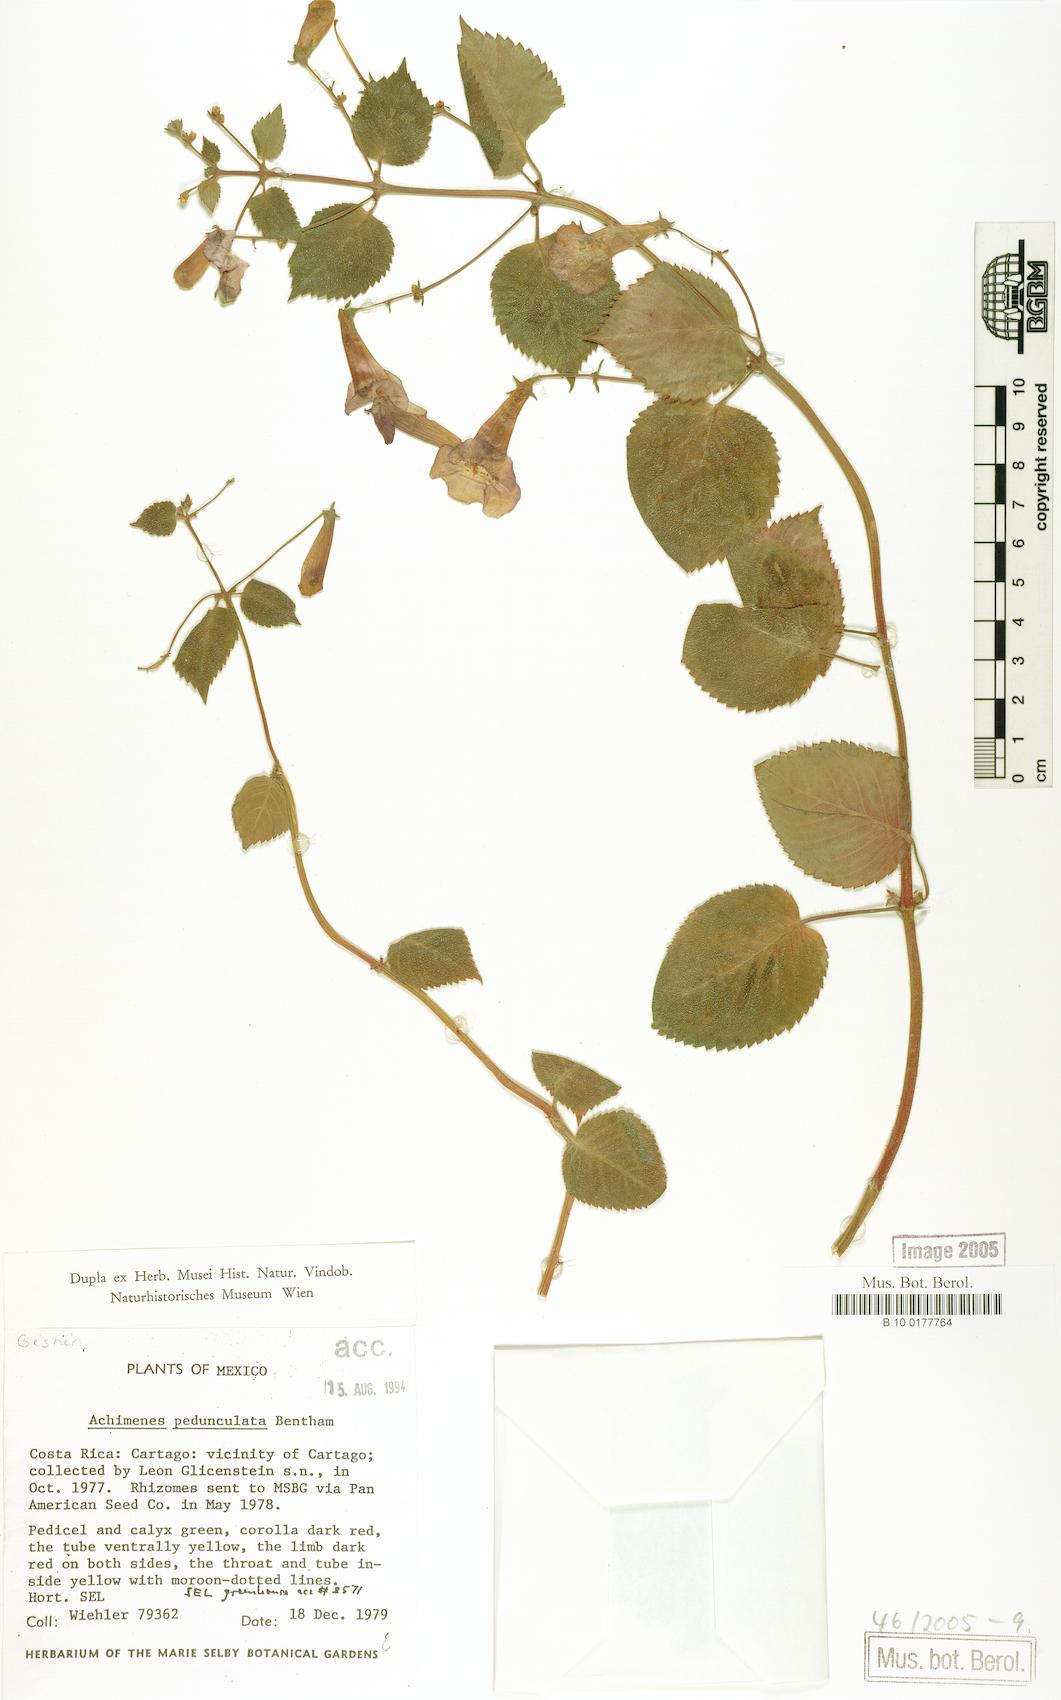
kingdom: Plantae
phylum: Tracheophyta
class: Magnoliopsida
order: Lamiales
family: Gesneriaceae
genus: Achimenes
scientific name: Achimenes pedunculata
